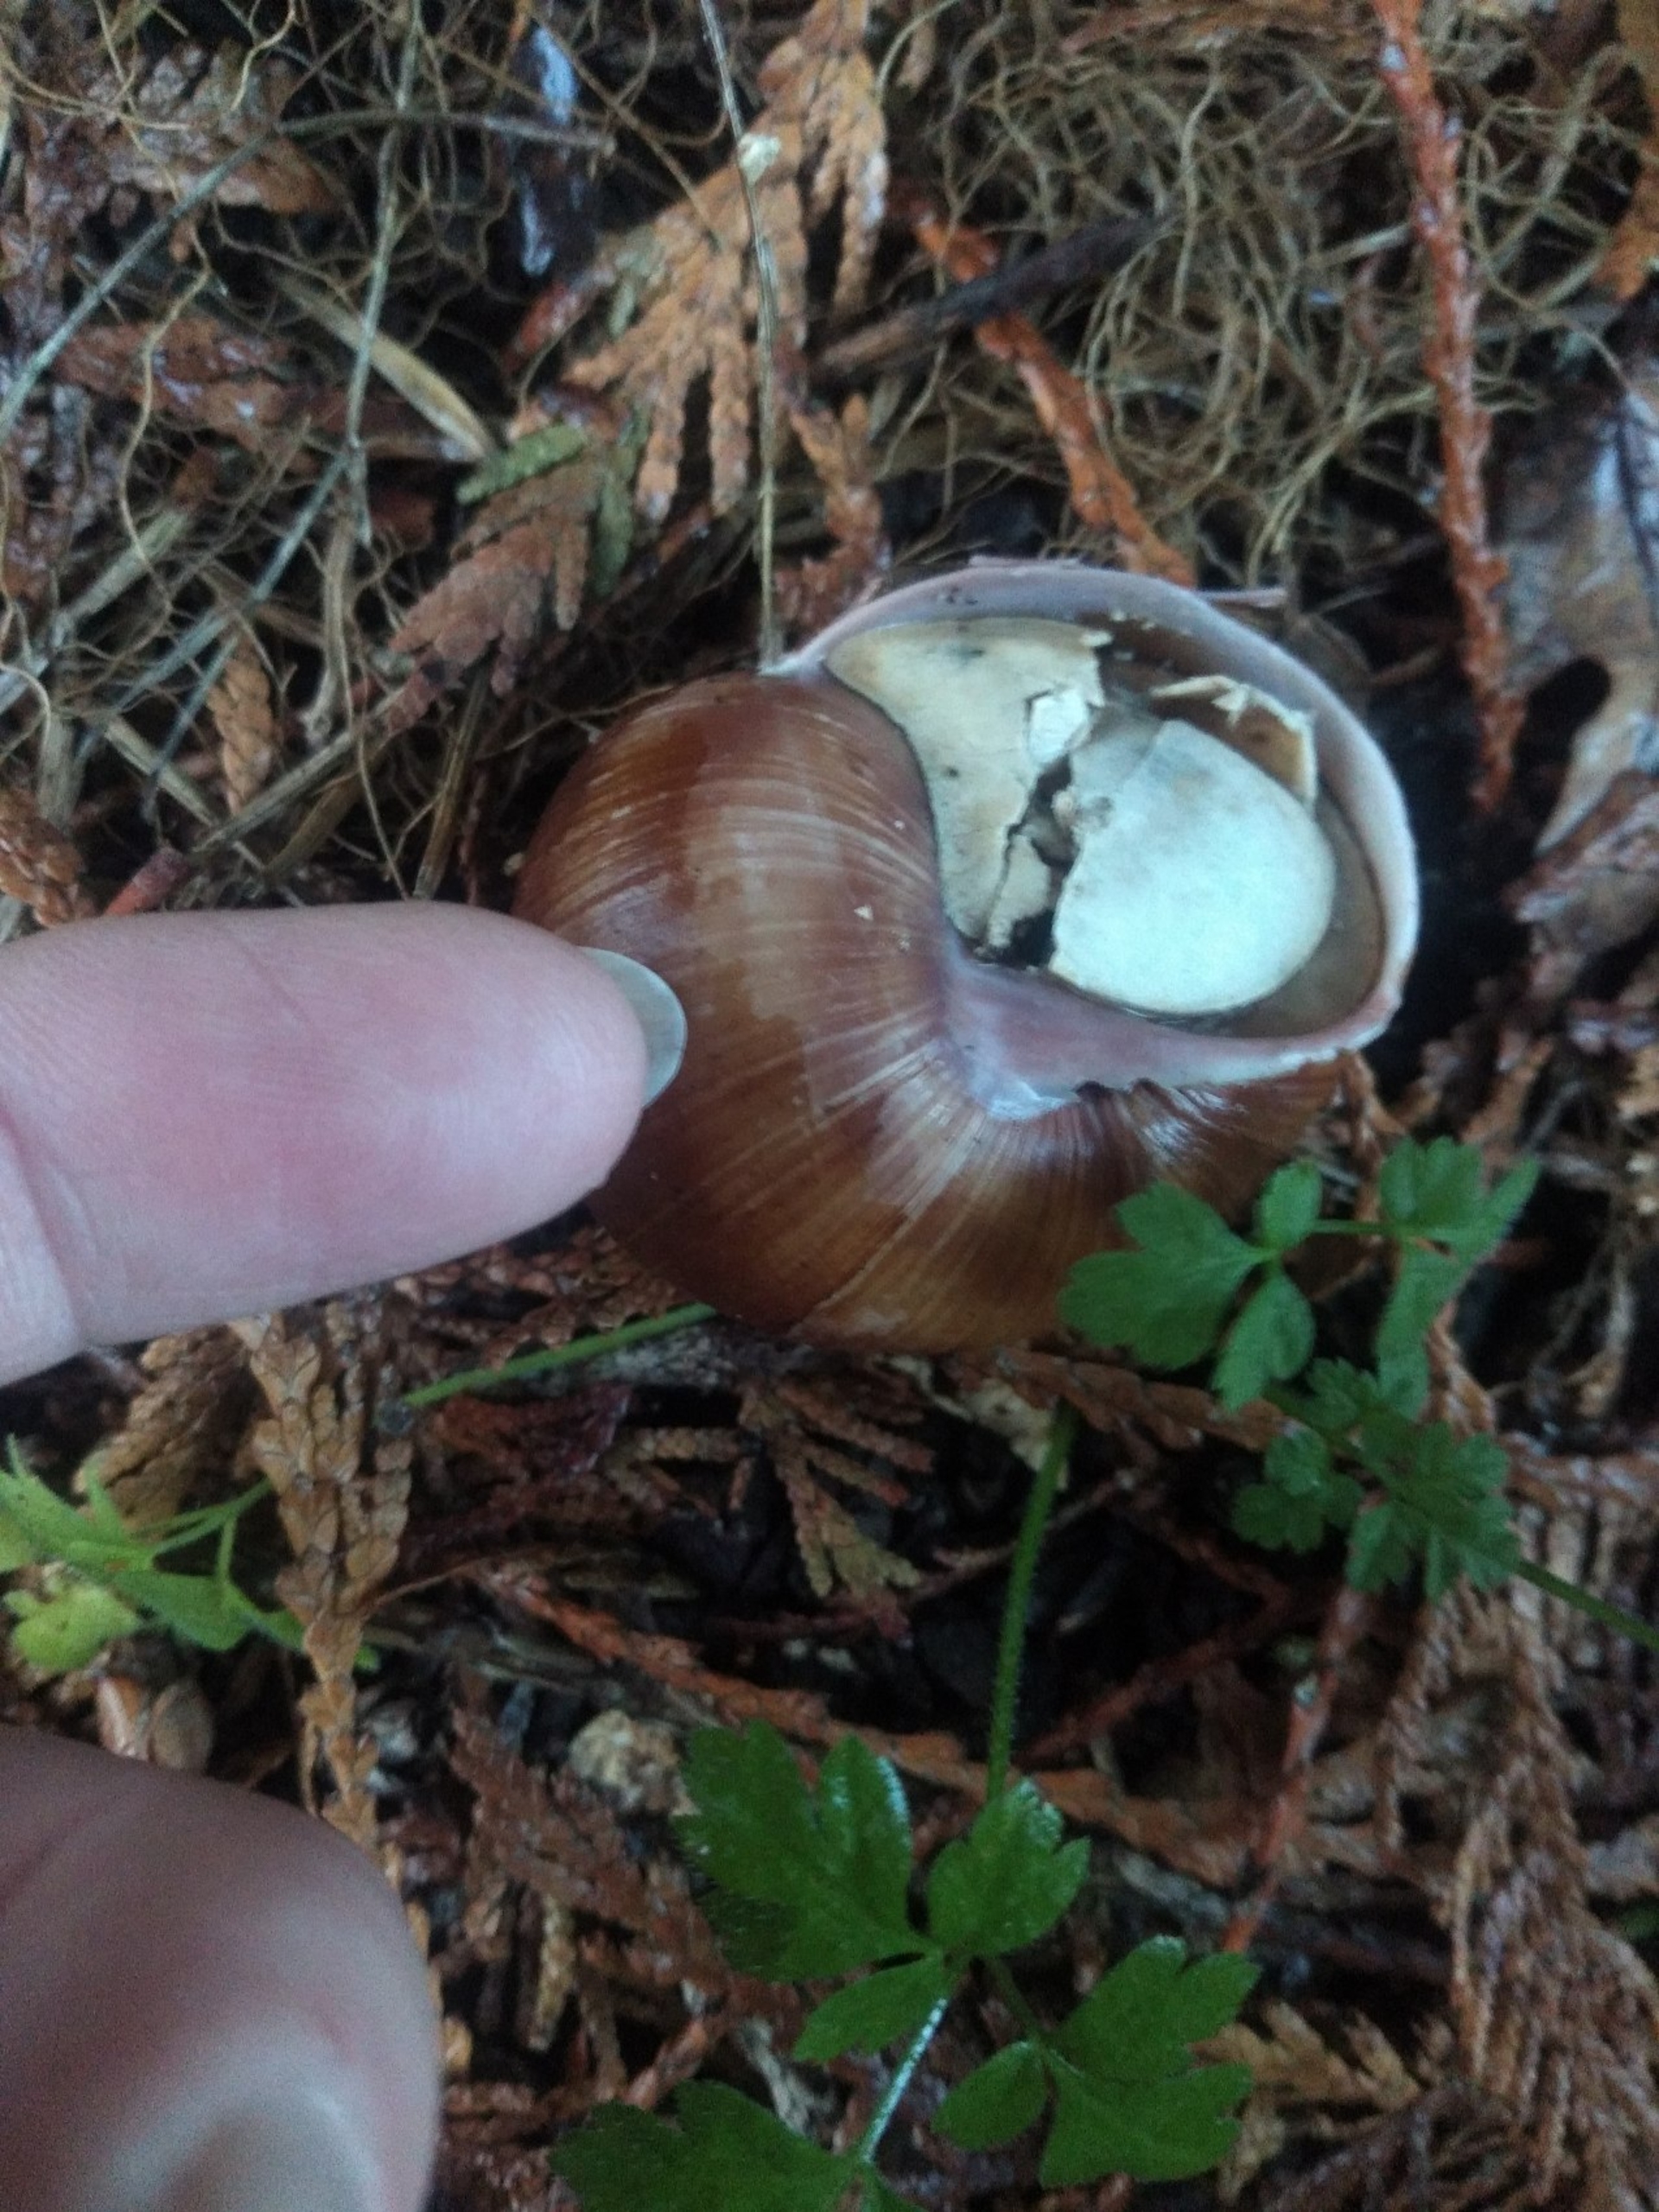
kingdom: Animalia
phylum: Mollusca
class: Gastropoda
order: Stylommatophora
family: Helicidae
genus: Helix
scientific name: Helix pomatia
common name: Vinbjergsnegl
